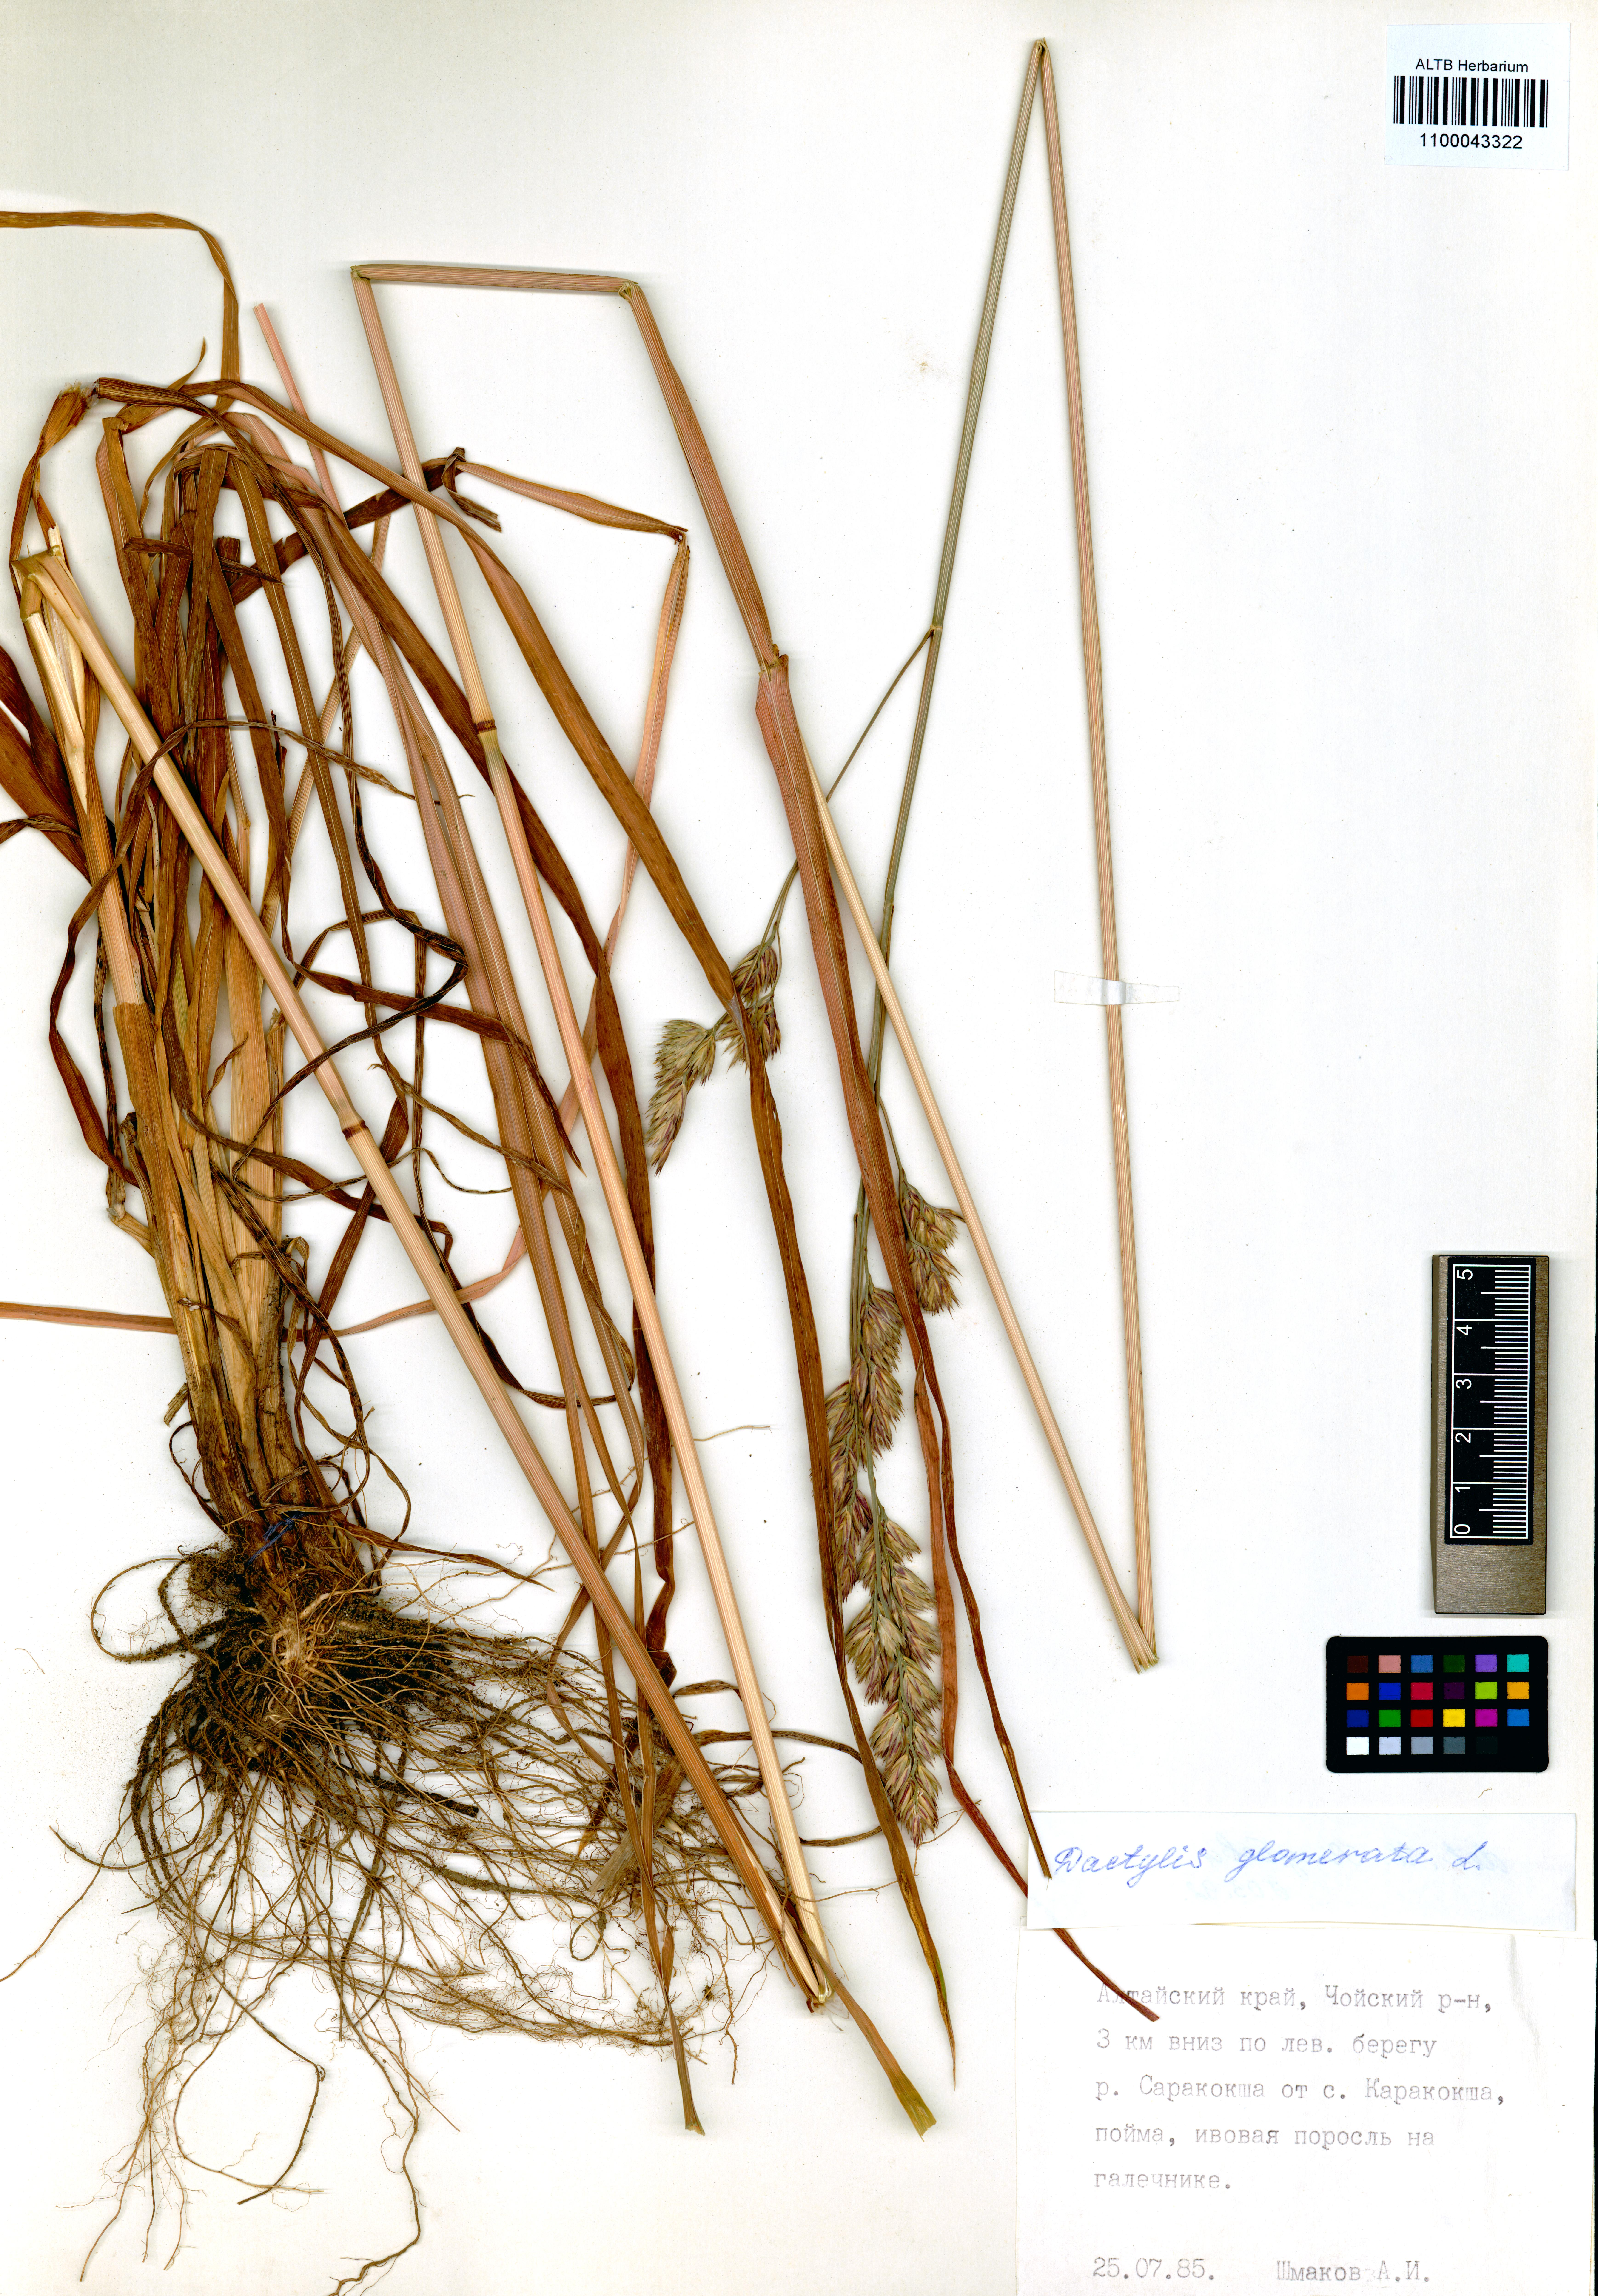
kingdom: Plantae
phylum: Tracheophyta
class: Liliopsida
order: Poales
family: Poaceae
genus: Dactylis
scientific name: Dactylis glomerata
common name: Orchardgrass
